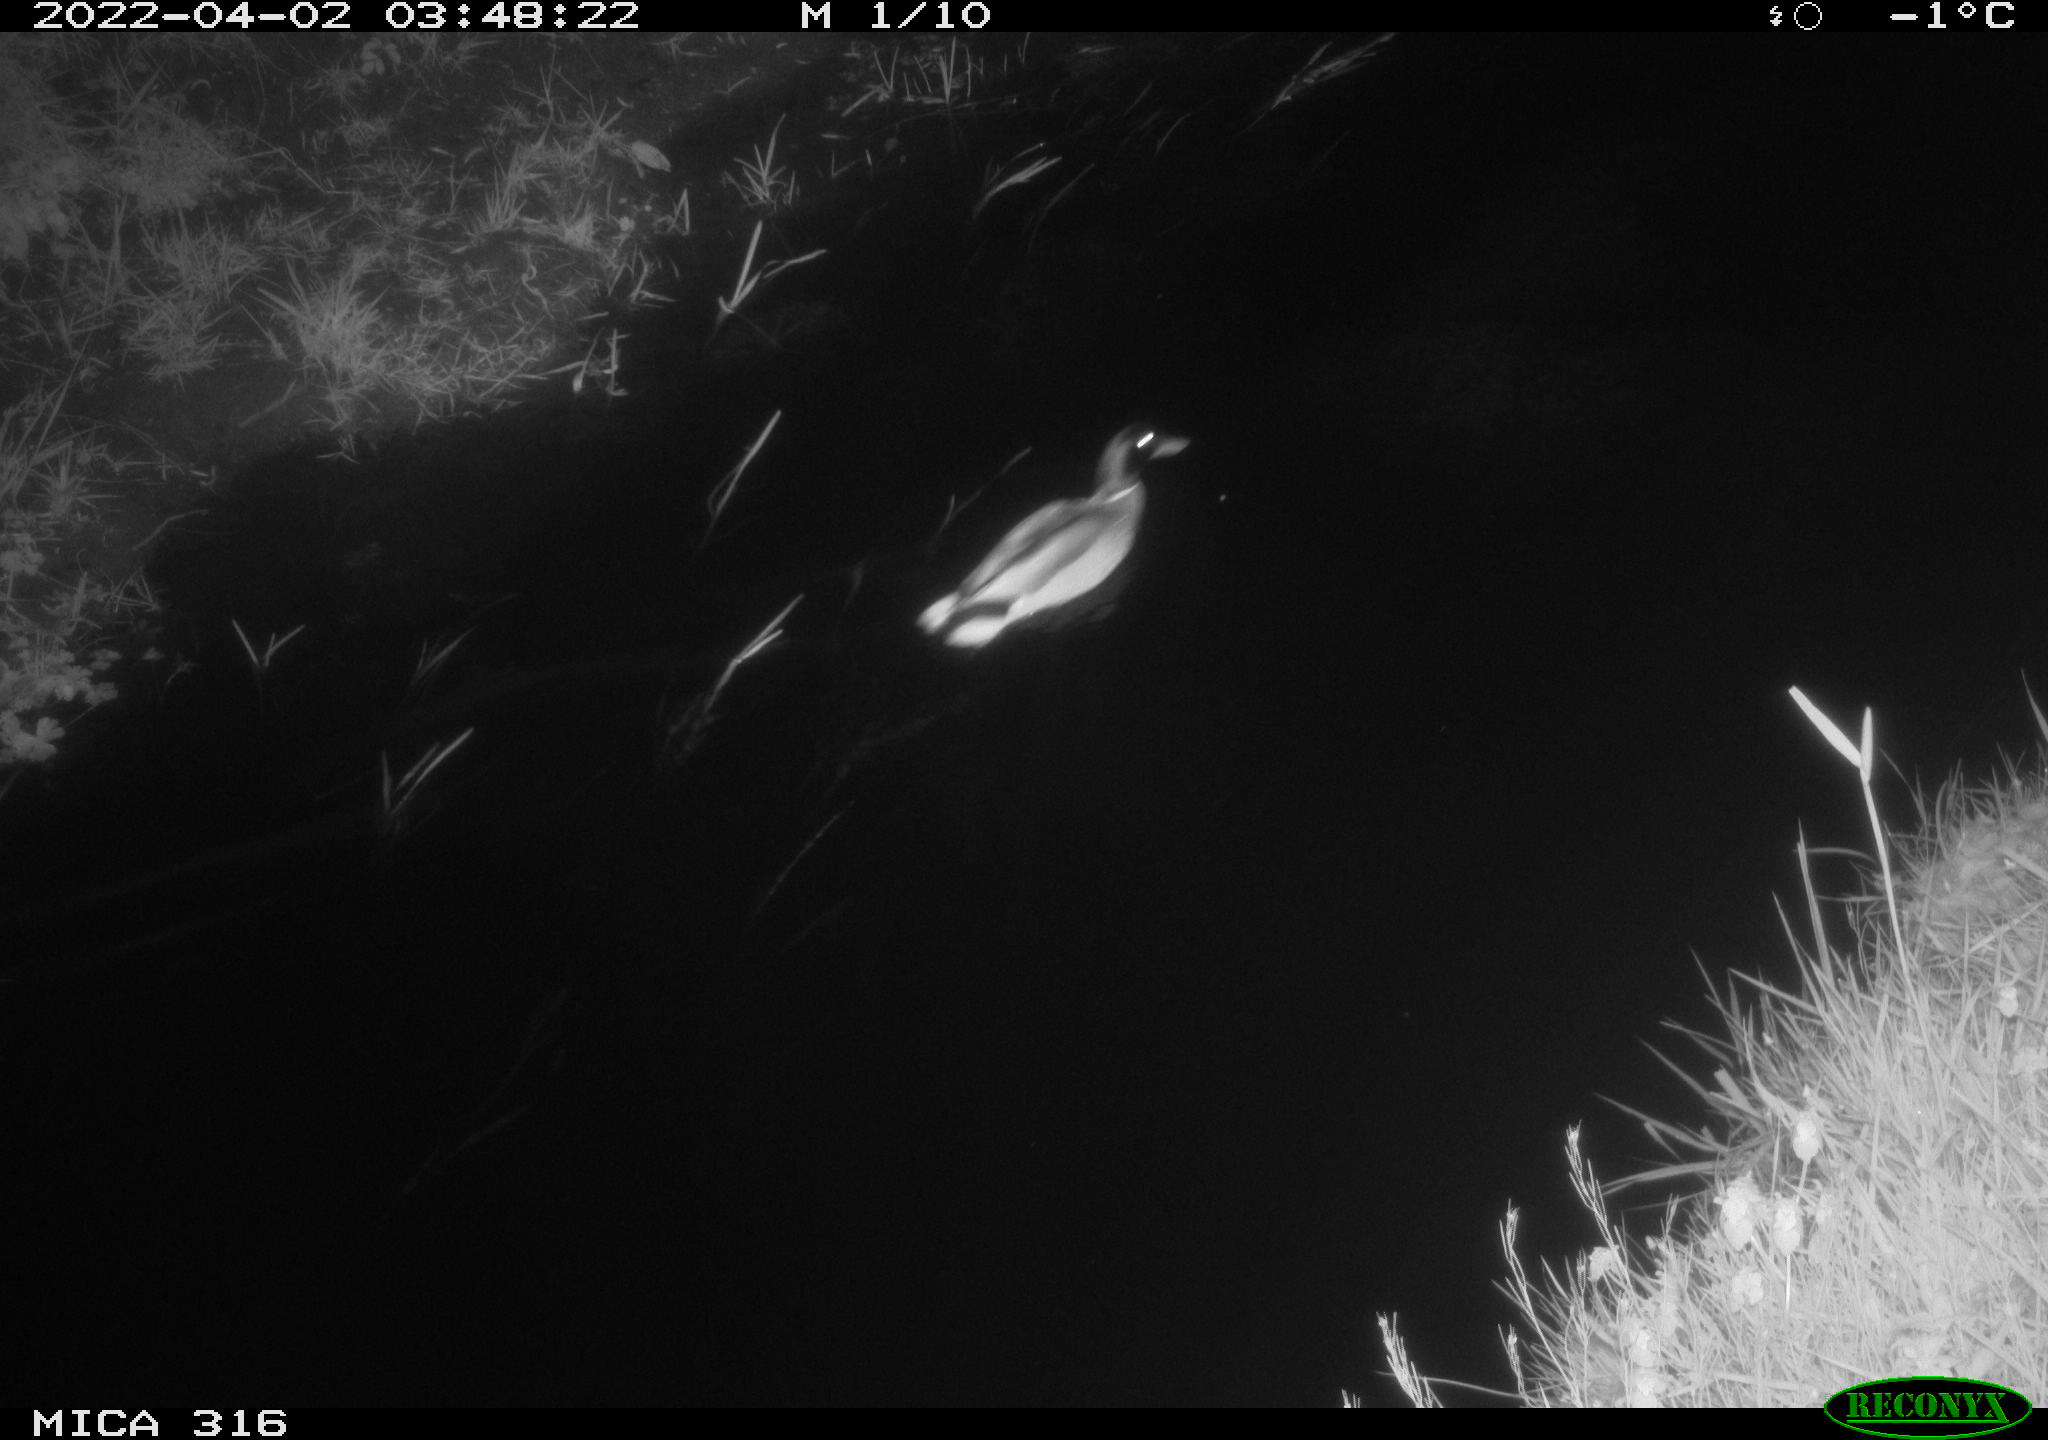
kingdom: Animalia
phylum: Chordata
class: Aves
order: Anseriformes
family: Anatidae
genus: Anas
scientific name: Anas platyrhynchos
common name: Mallard
